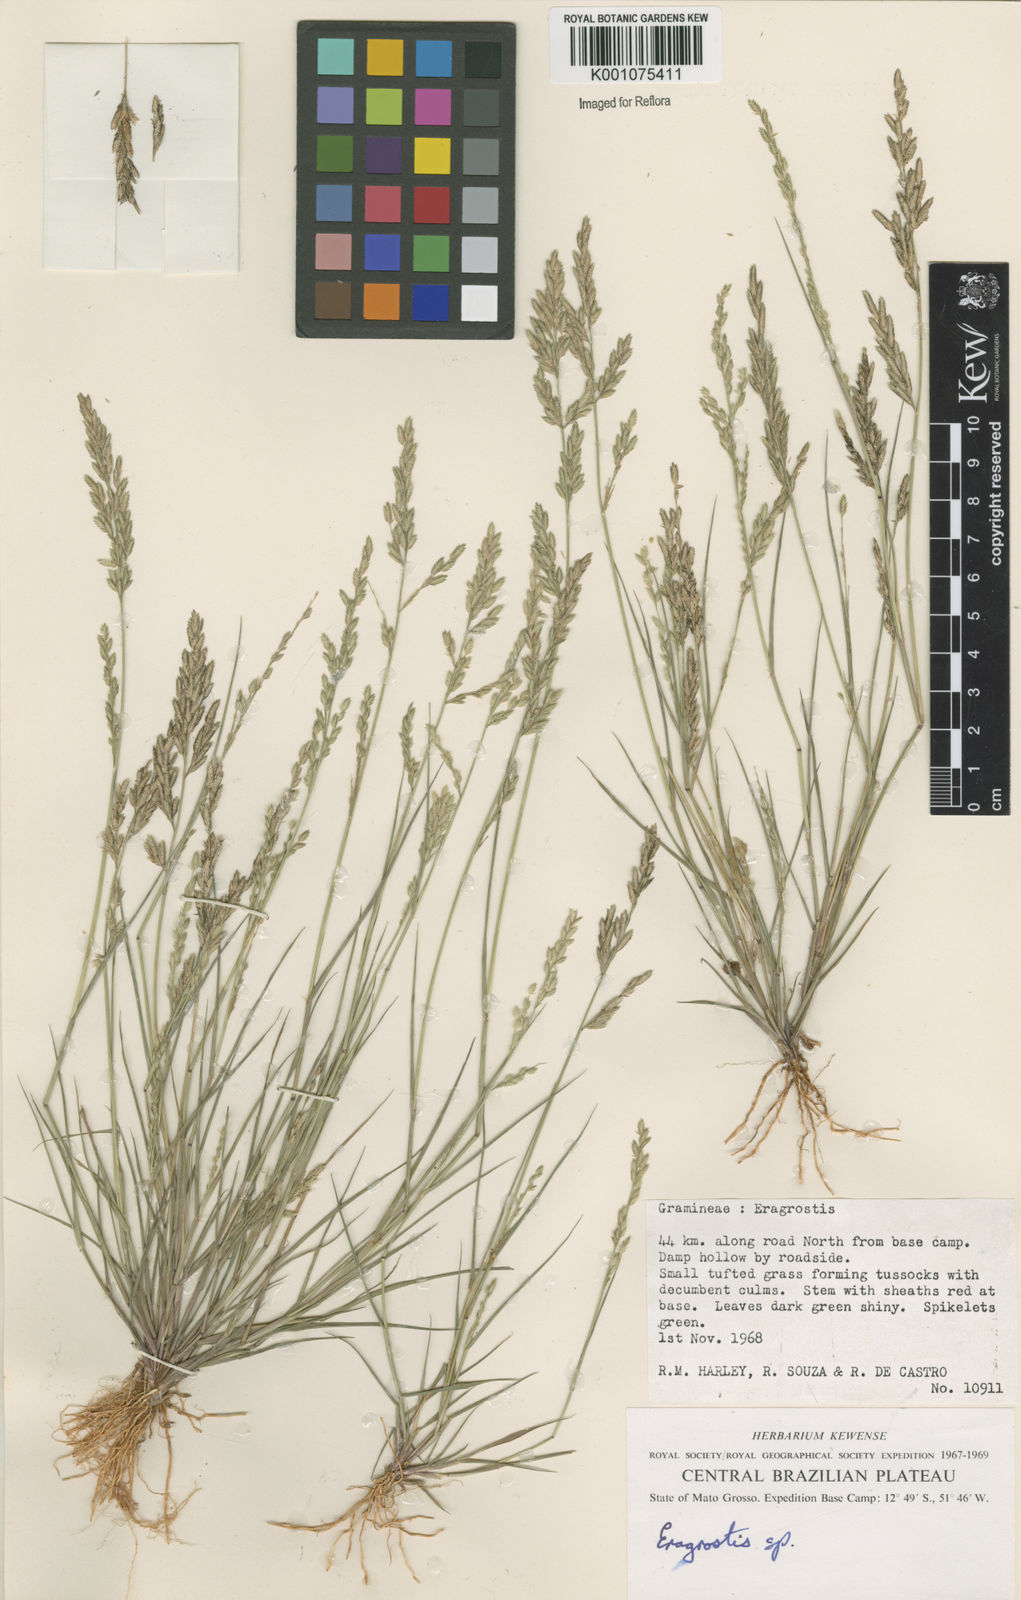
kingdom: Plantae
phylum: Tracheophyta
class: Liliopsida
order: Poales
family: Poaceae
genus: Eragrostis
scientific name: Eragrostis rufescens
